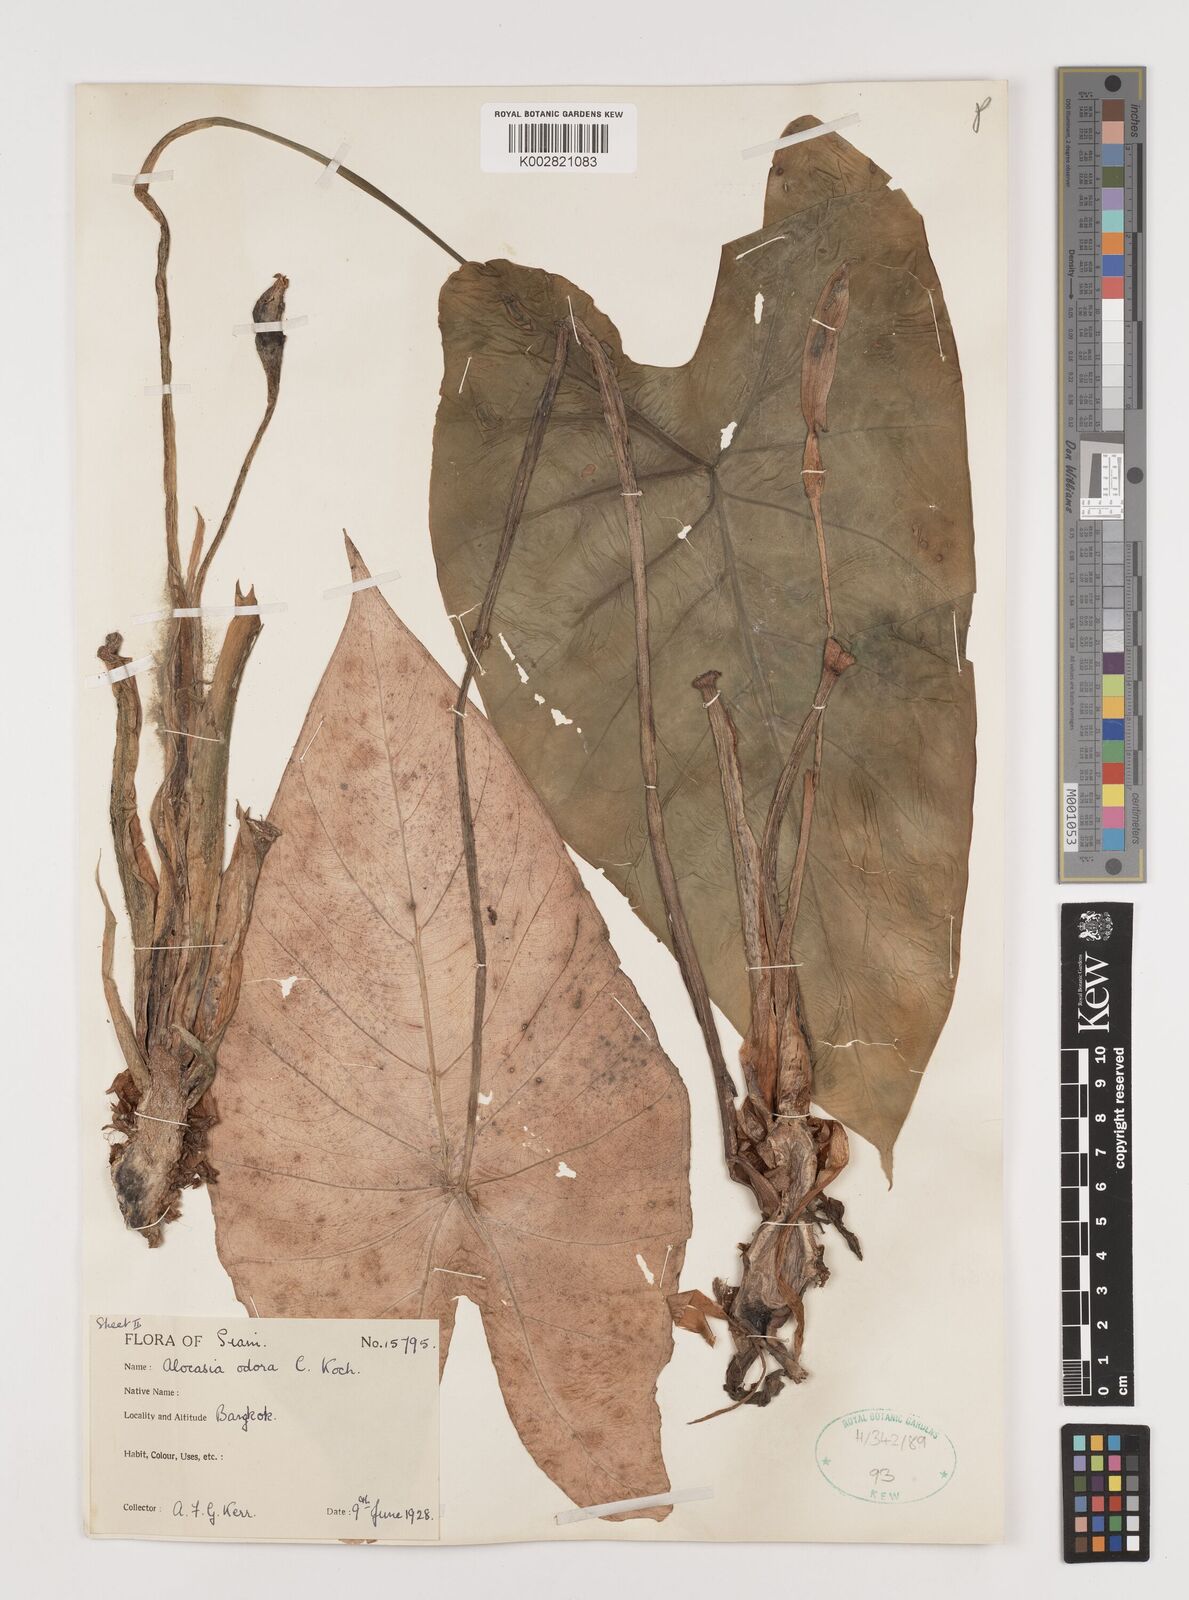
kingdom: Plantae
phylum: Tracheophyta
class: Liliopsida
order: Alismatales
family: Araceae
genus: Alocasia
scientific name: Alocasia
